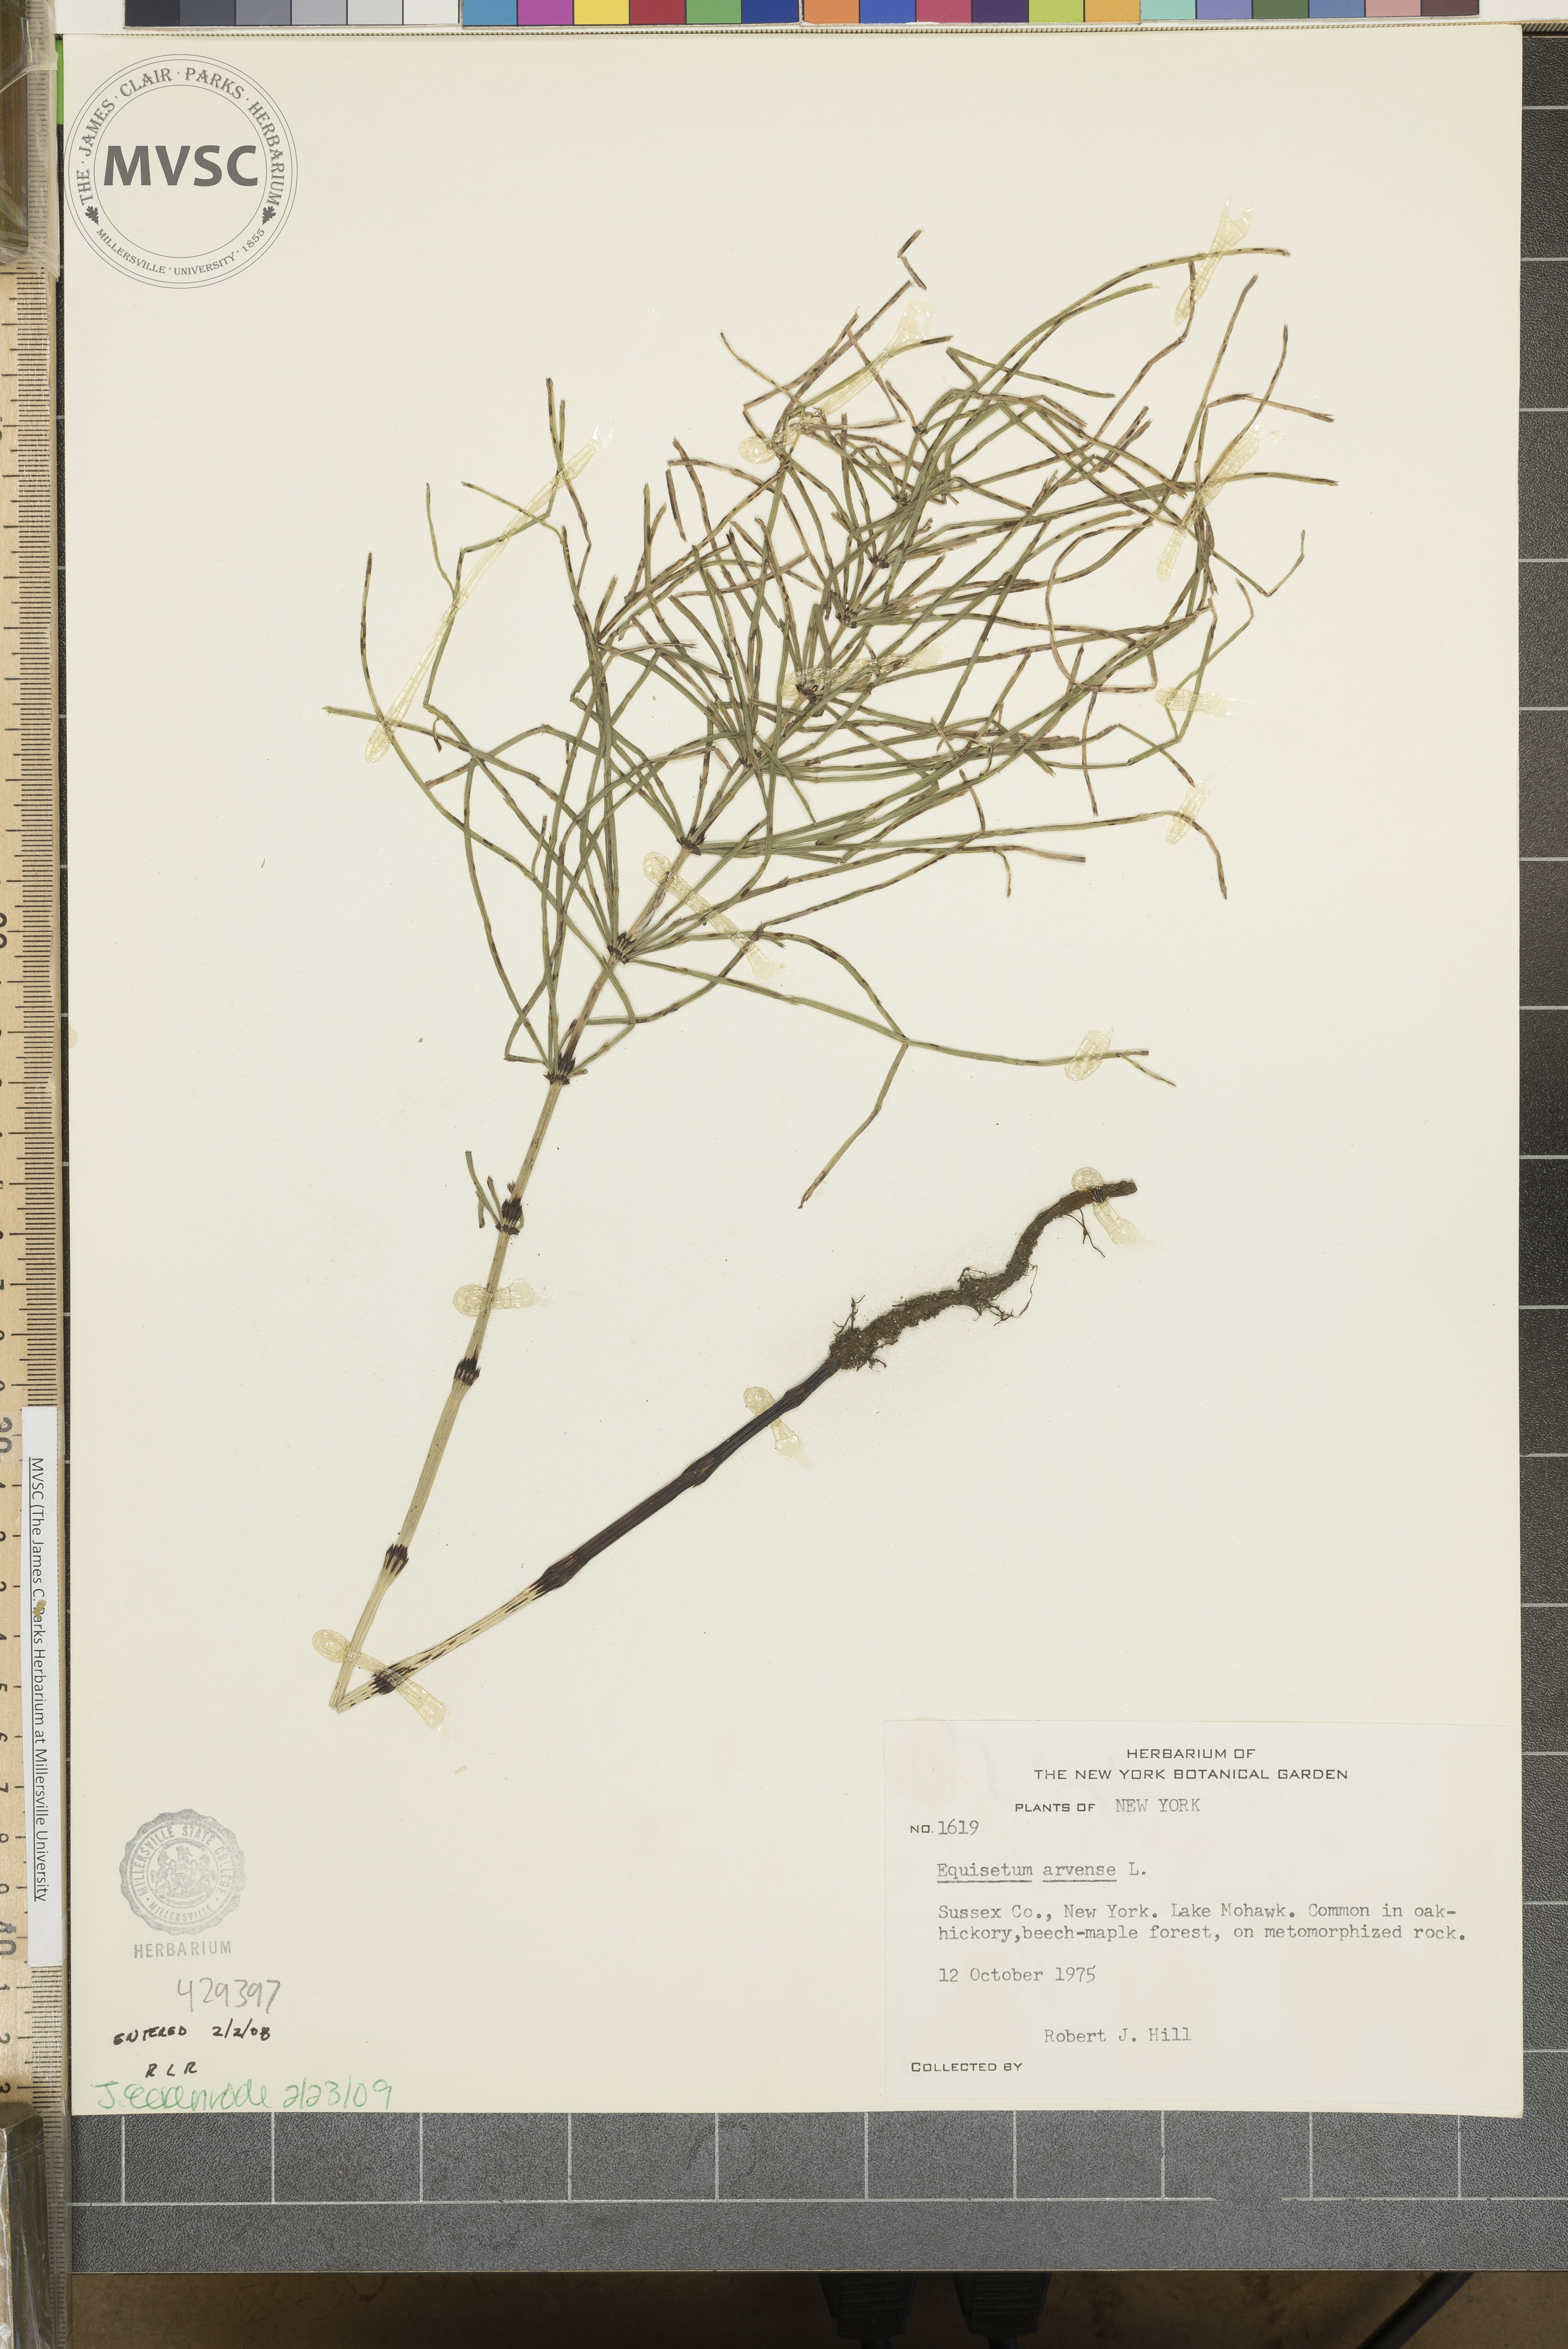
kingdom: Plantae
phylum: Tracheophyta
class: Polypodiopsida
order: Equisetales
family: Equisetaceae
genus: Equisetum
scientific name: Equisetum arvense
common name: Field horsetail
